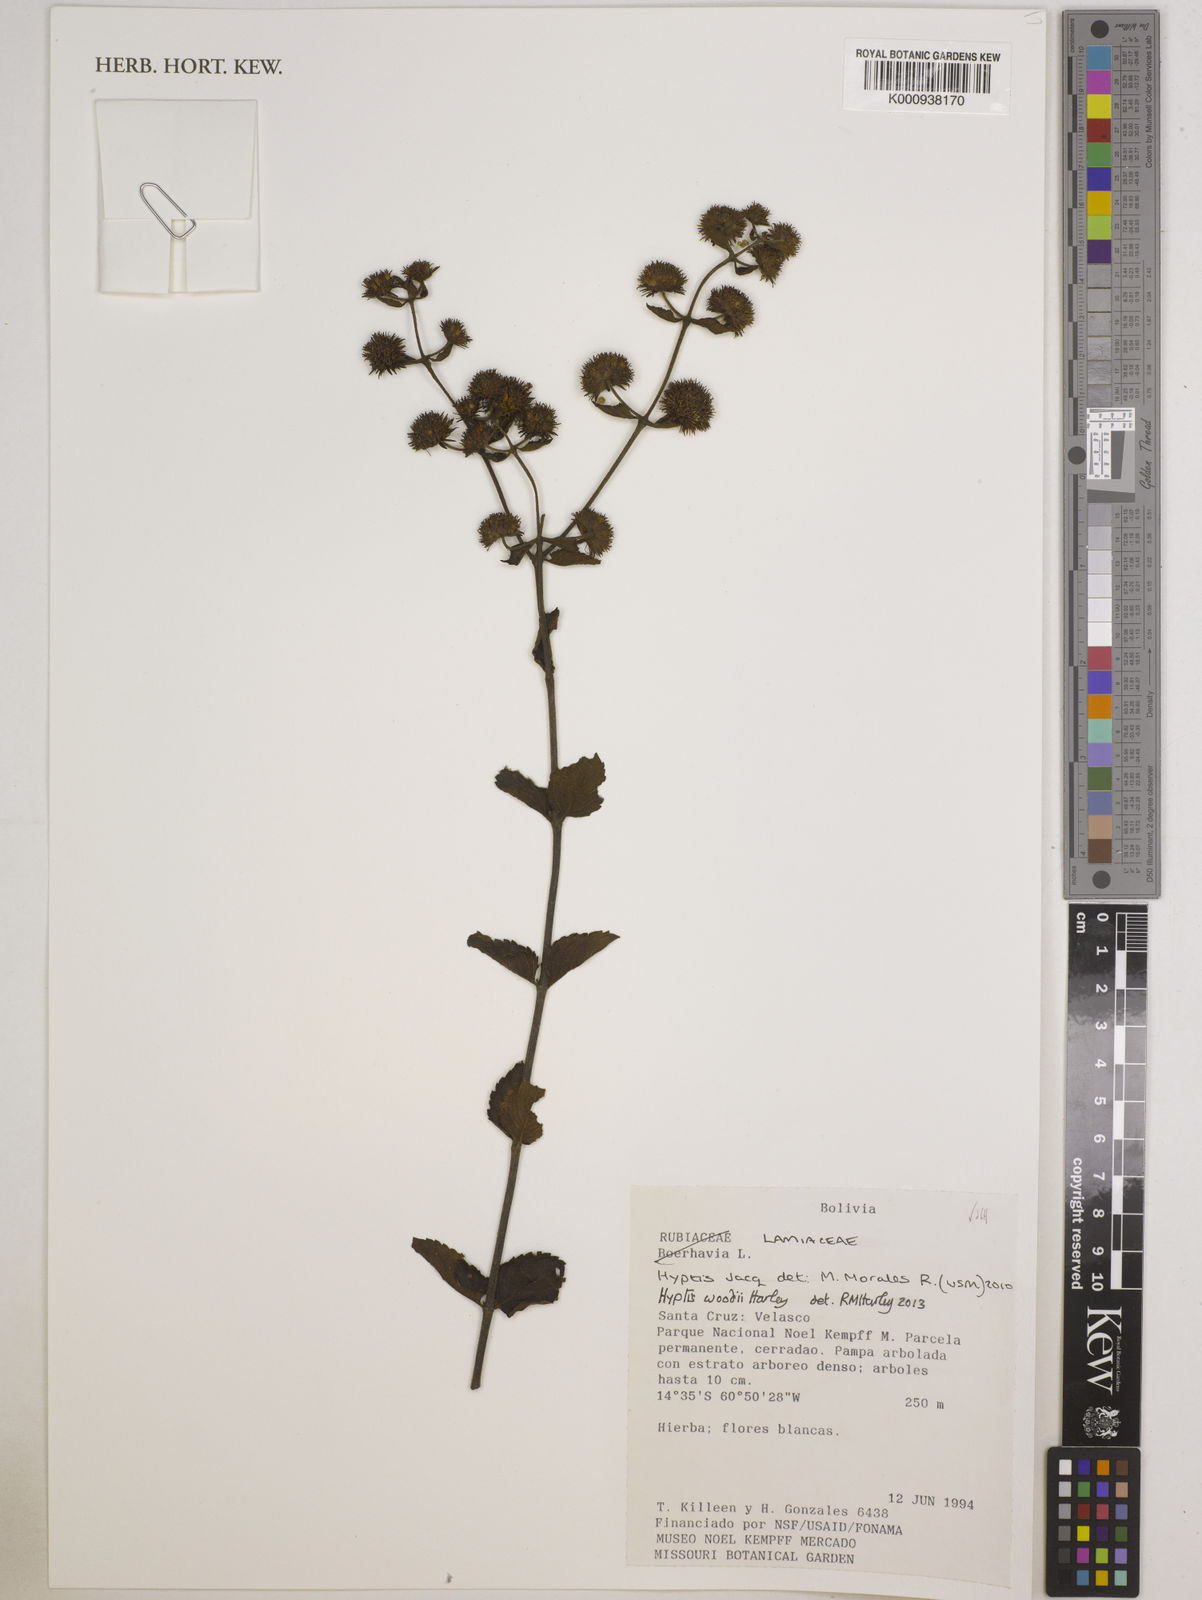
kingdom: Plantae
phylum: Tracheophyta
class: Magnoliopsida
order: Lamiales
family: Lamiaceae
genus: Hyptis
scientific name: Hyptis woodii
